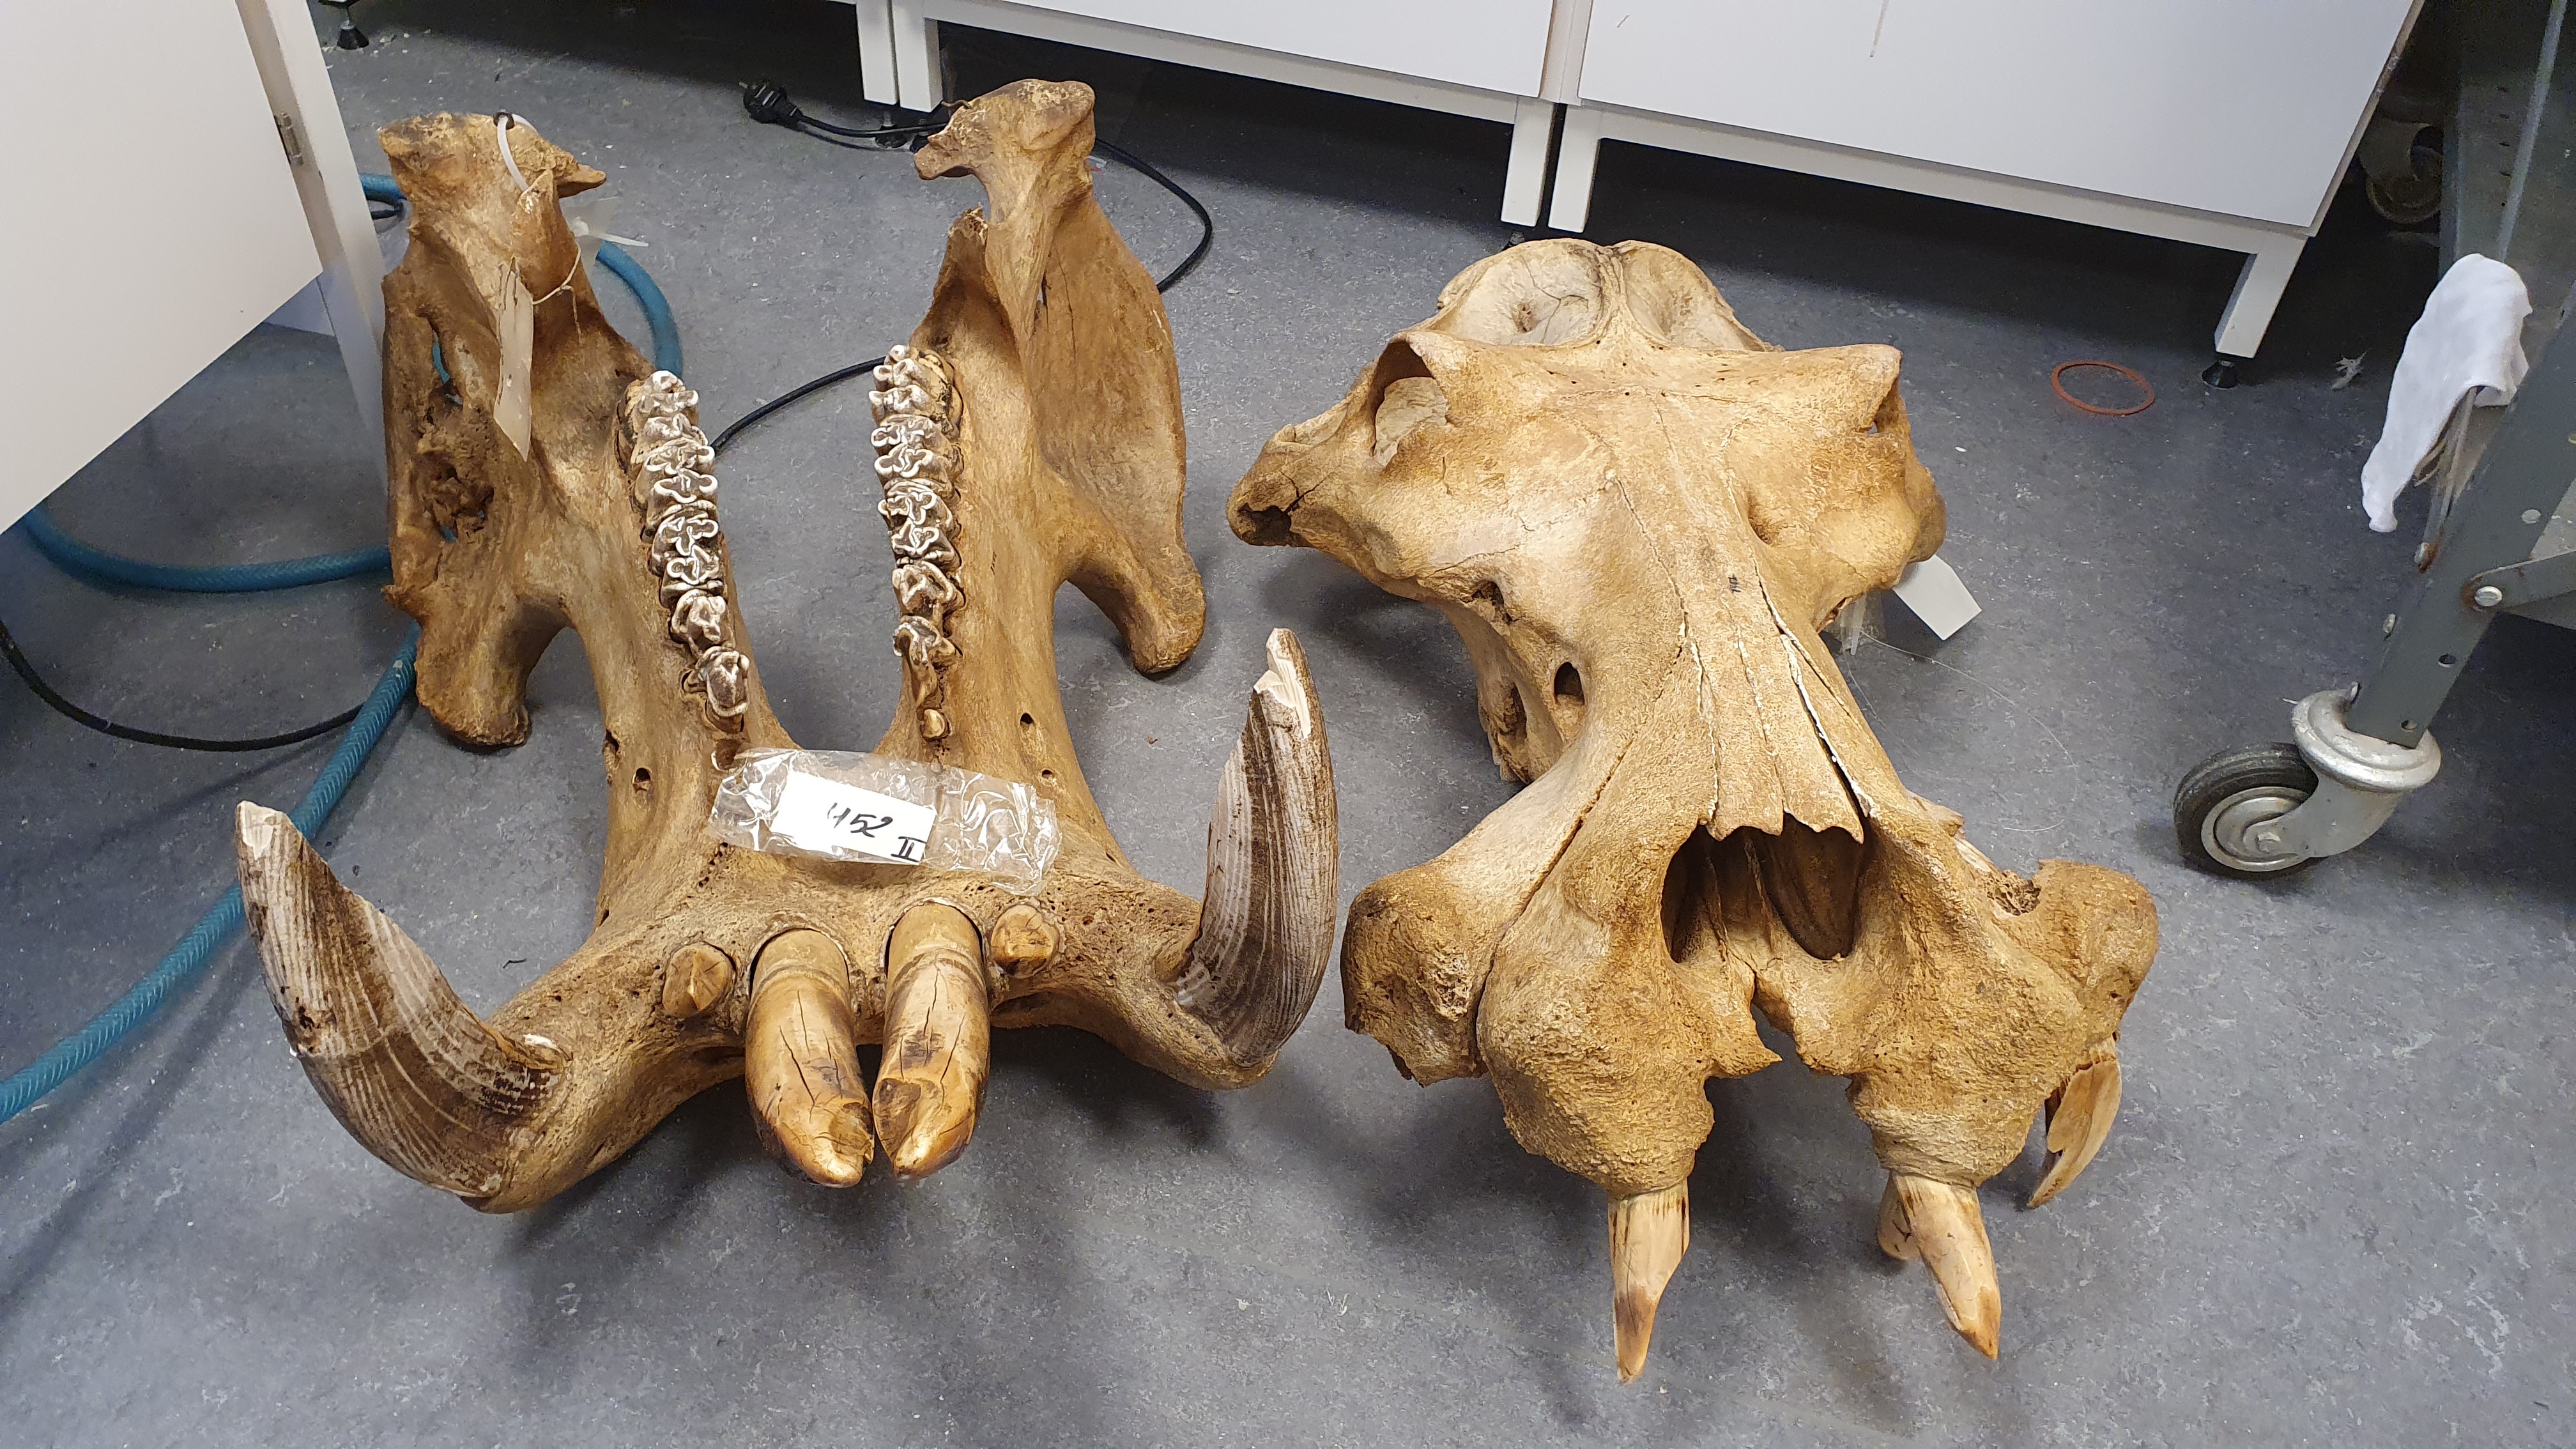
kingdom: Animalia
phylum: Chordata
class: Mammalia
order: Artiodactyla
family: Hippopotamidae
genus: Hippopotamus
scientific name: Hippopotamus amphibius
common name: Common hippopotamus
